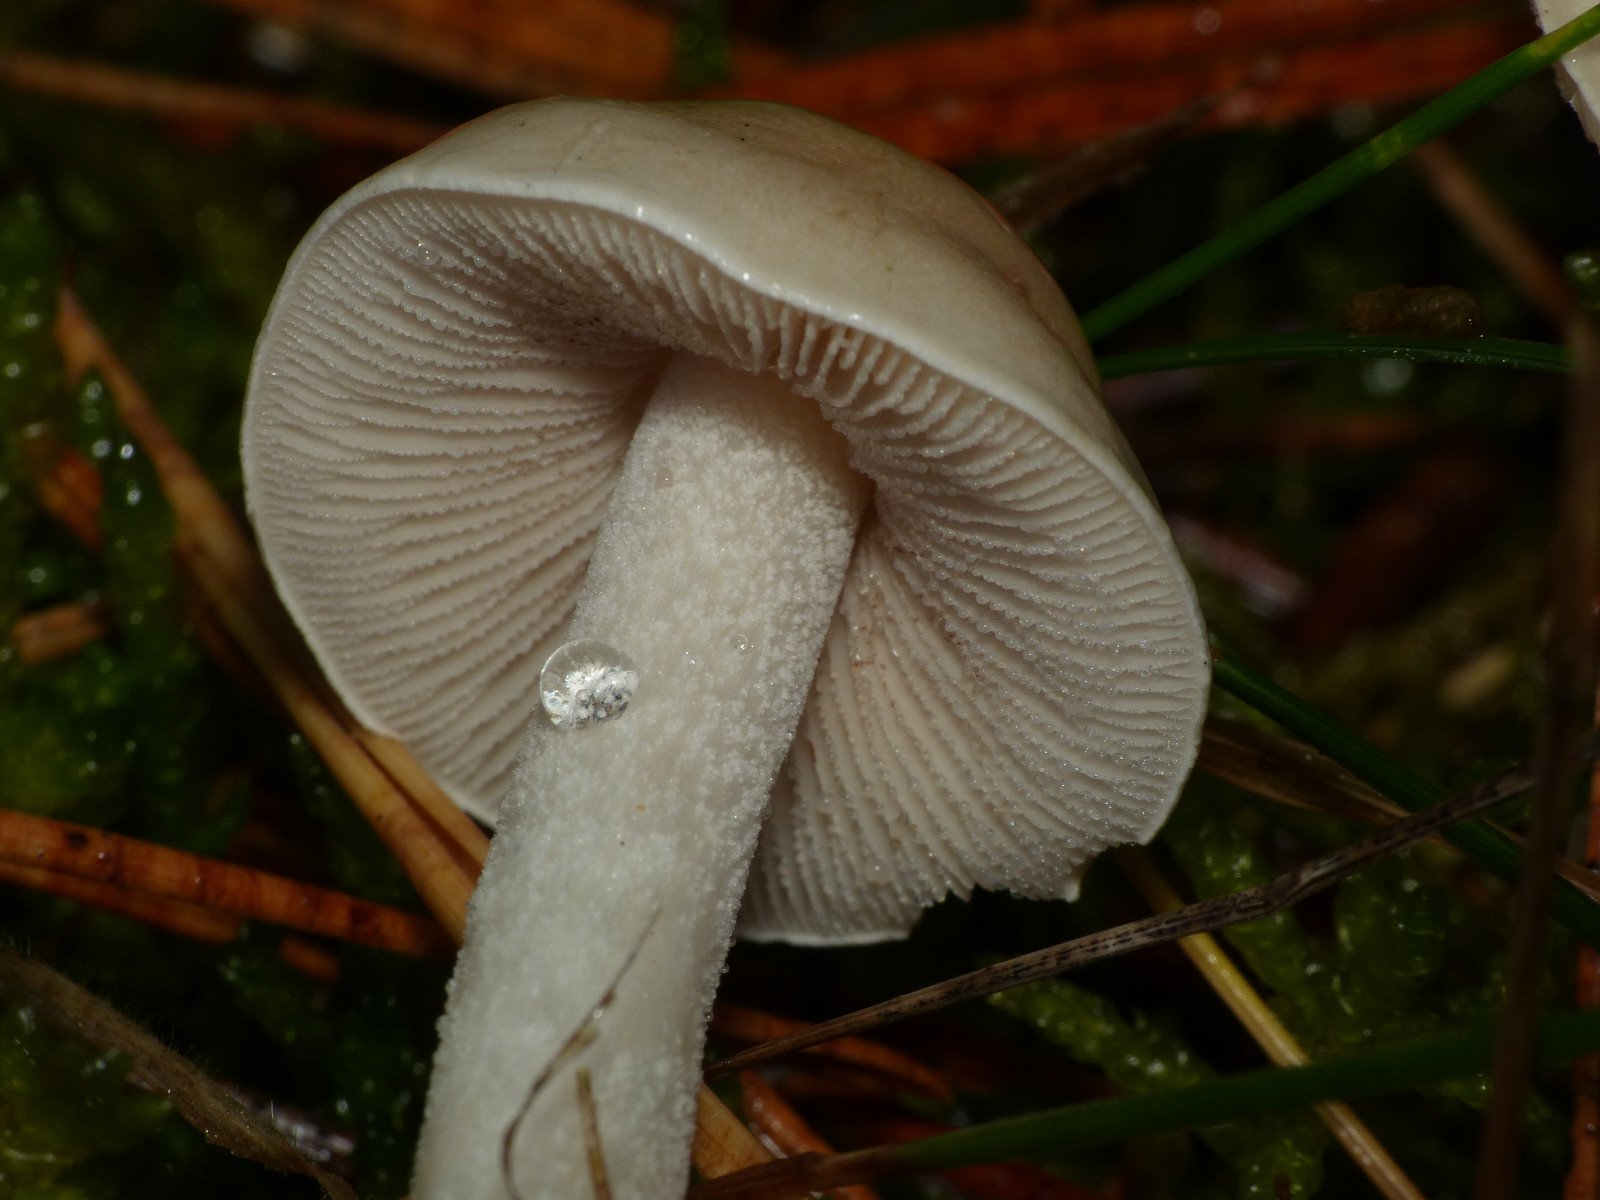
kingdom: Fungi
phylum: Basidiomycota
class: Agaricomycetes
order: Agaricales
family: Hymenogastraceae
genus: Hebeloma
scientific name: Hebeloma
